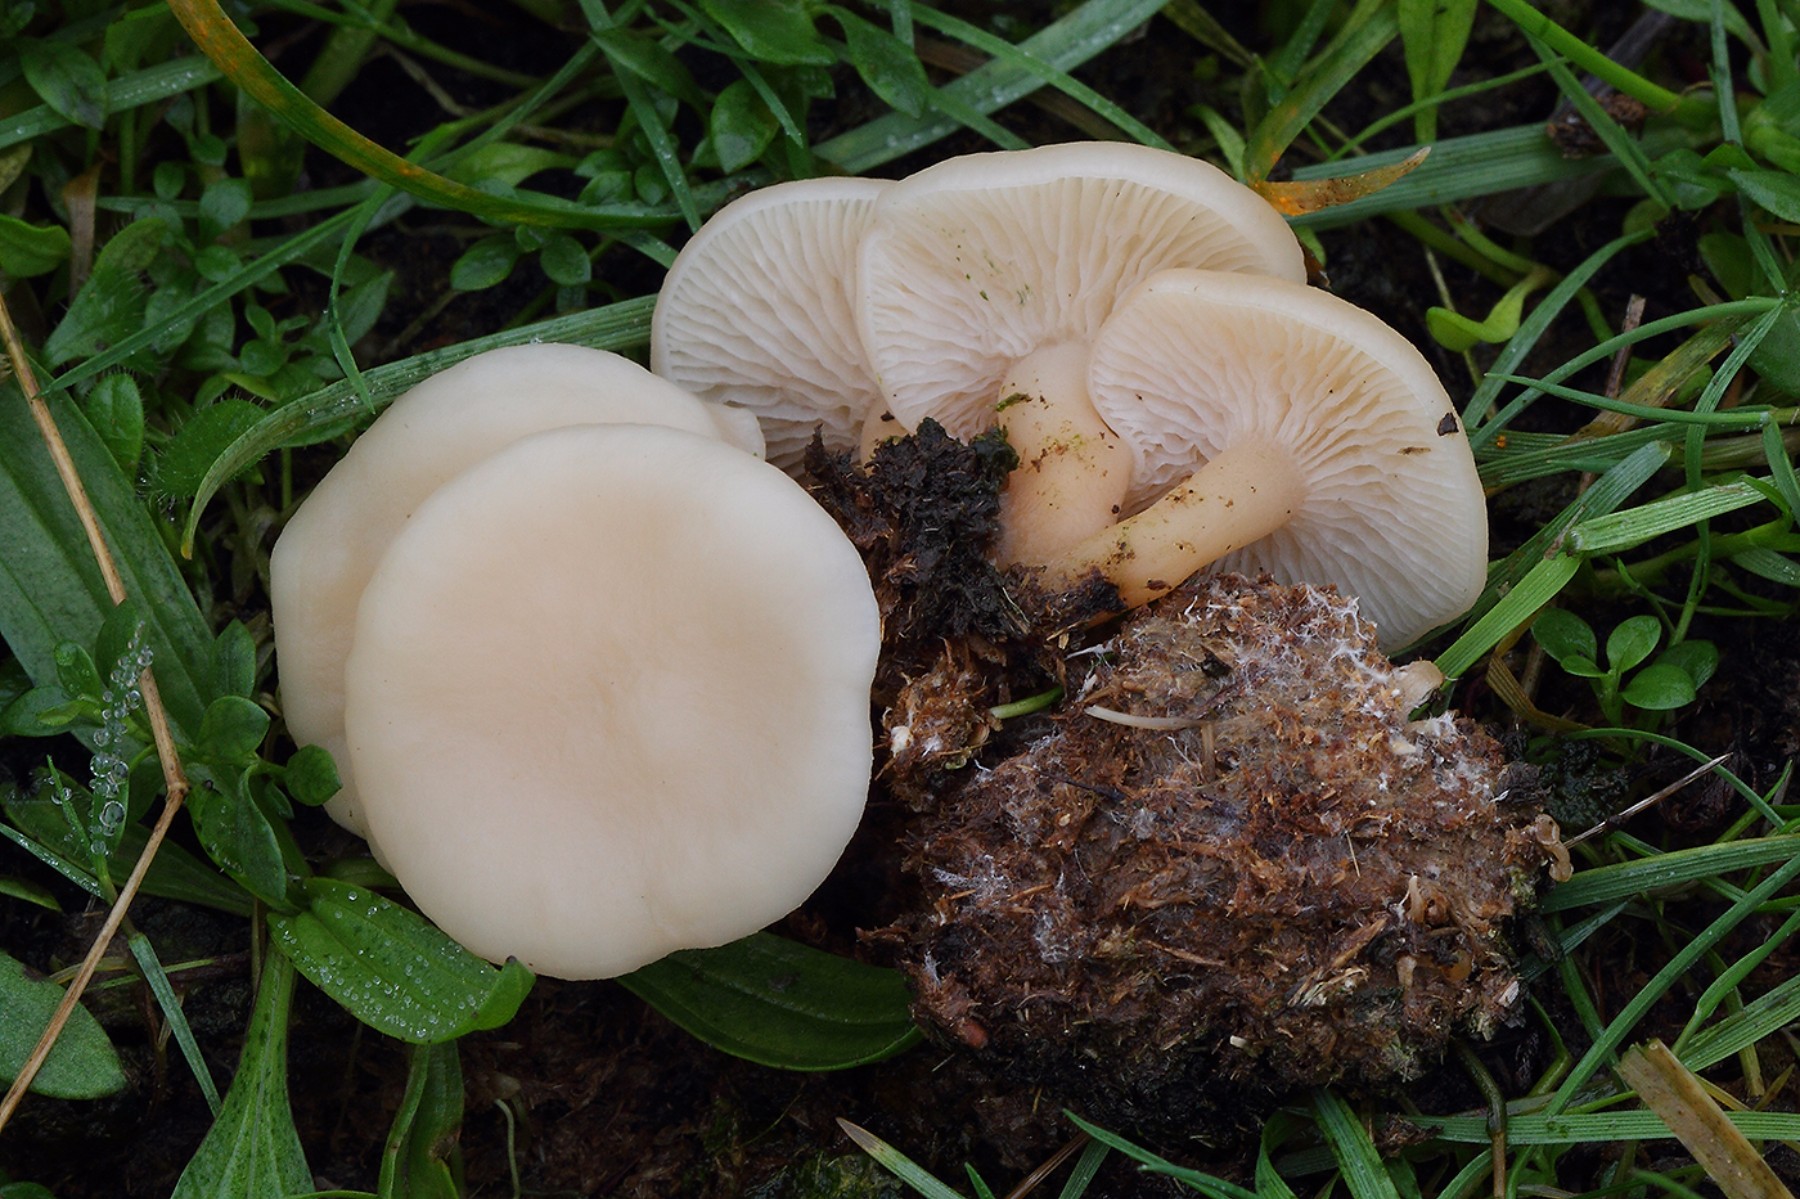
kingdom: Fungi
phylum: Basidiomycota
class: Agaricomycetes
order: Agaricales
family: Tricholomataceae
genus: Clitocybe
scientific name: Clitocybe agrestis
